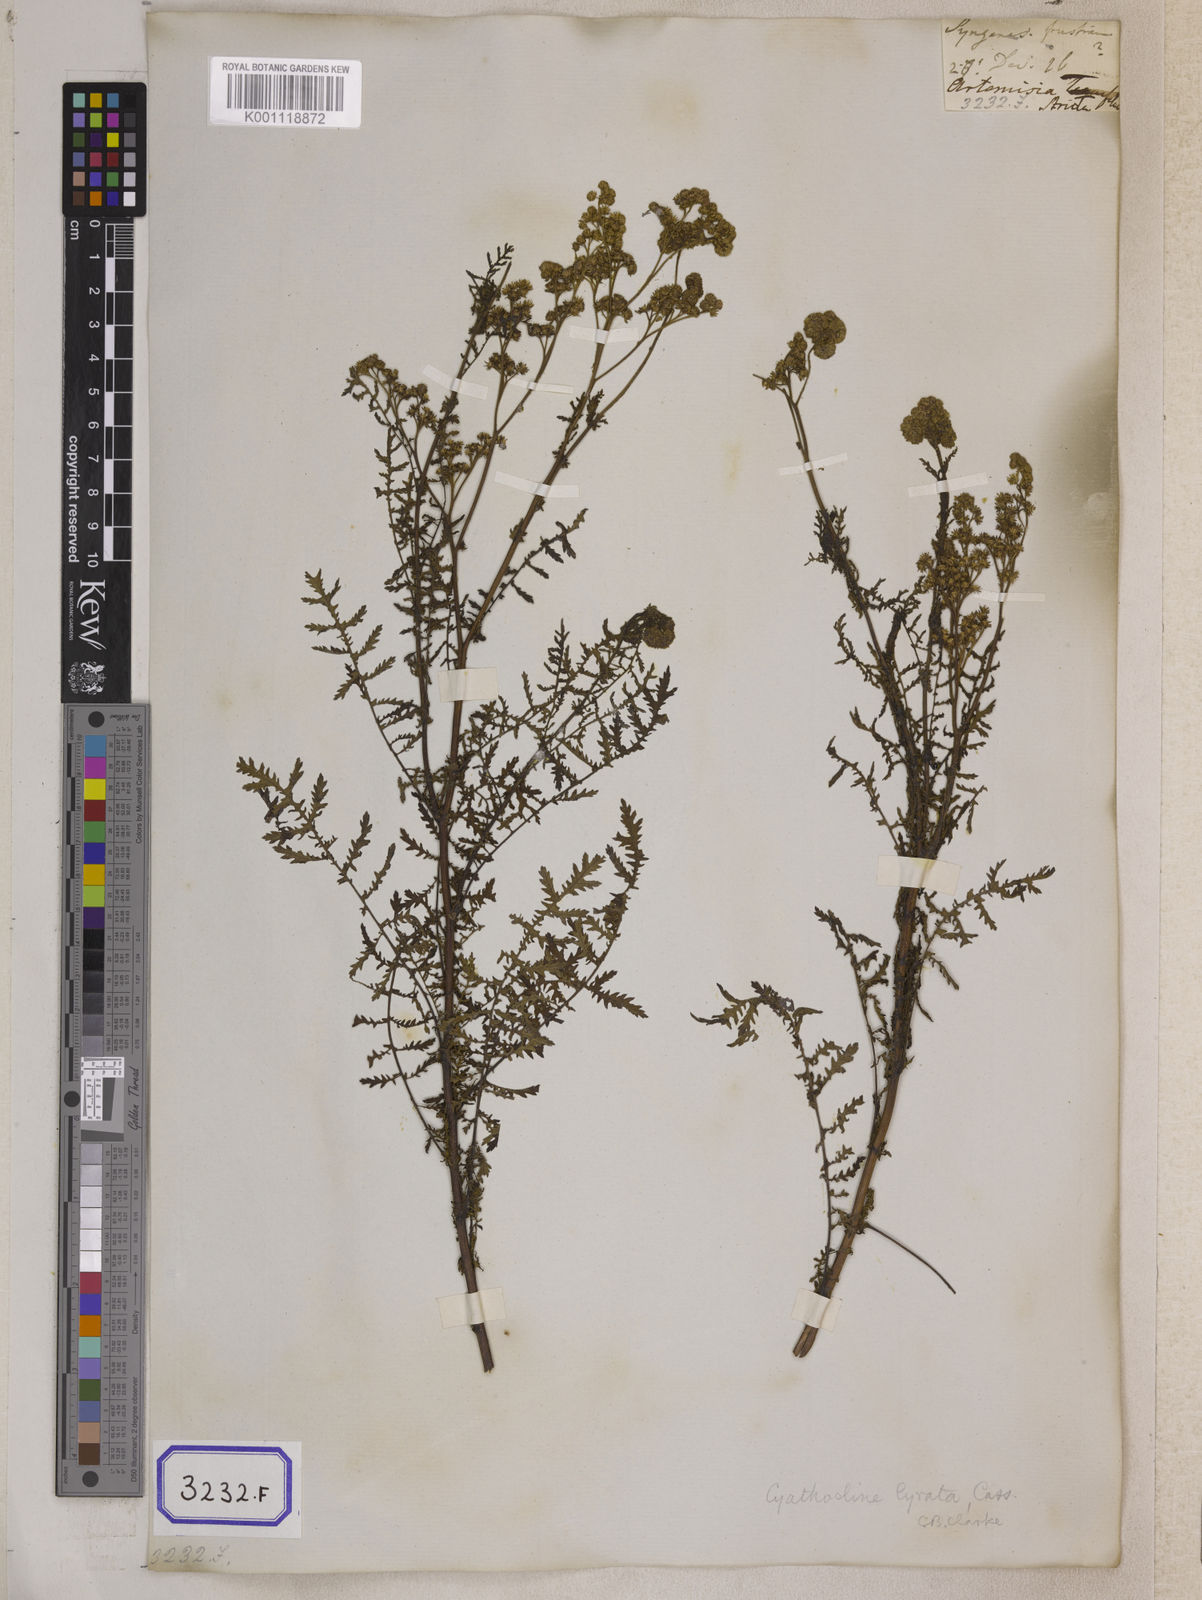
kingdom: Plantae
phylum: Tracheophyta
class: Magnoliopsida
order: Asterales
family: Asteraceae
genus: Cyathocline
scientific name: Cyathocline purpurea
